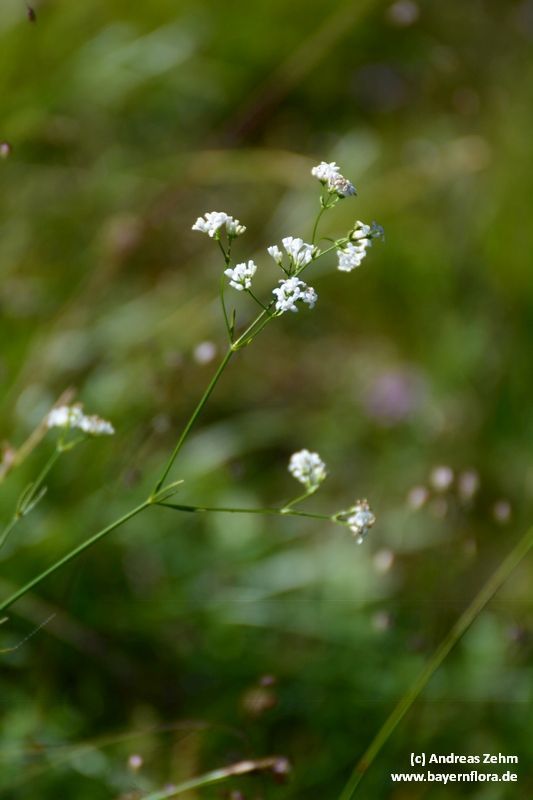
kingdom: Plantae
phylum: Tracheophyta
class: Magnoliopsida
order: Gentianales
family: Rubiaceae
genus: Asperula
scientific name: Asperula tinctoria
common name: Dyer's woodruff
